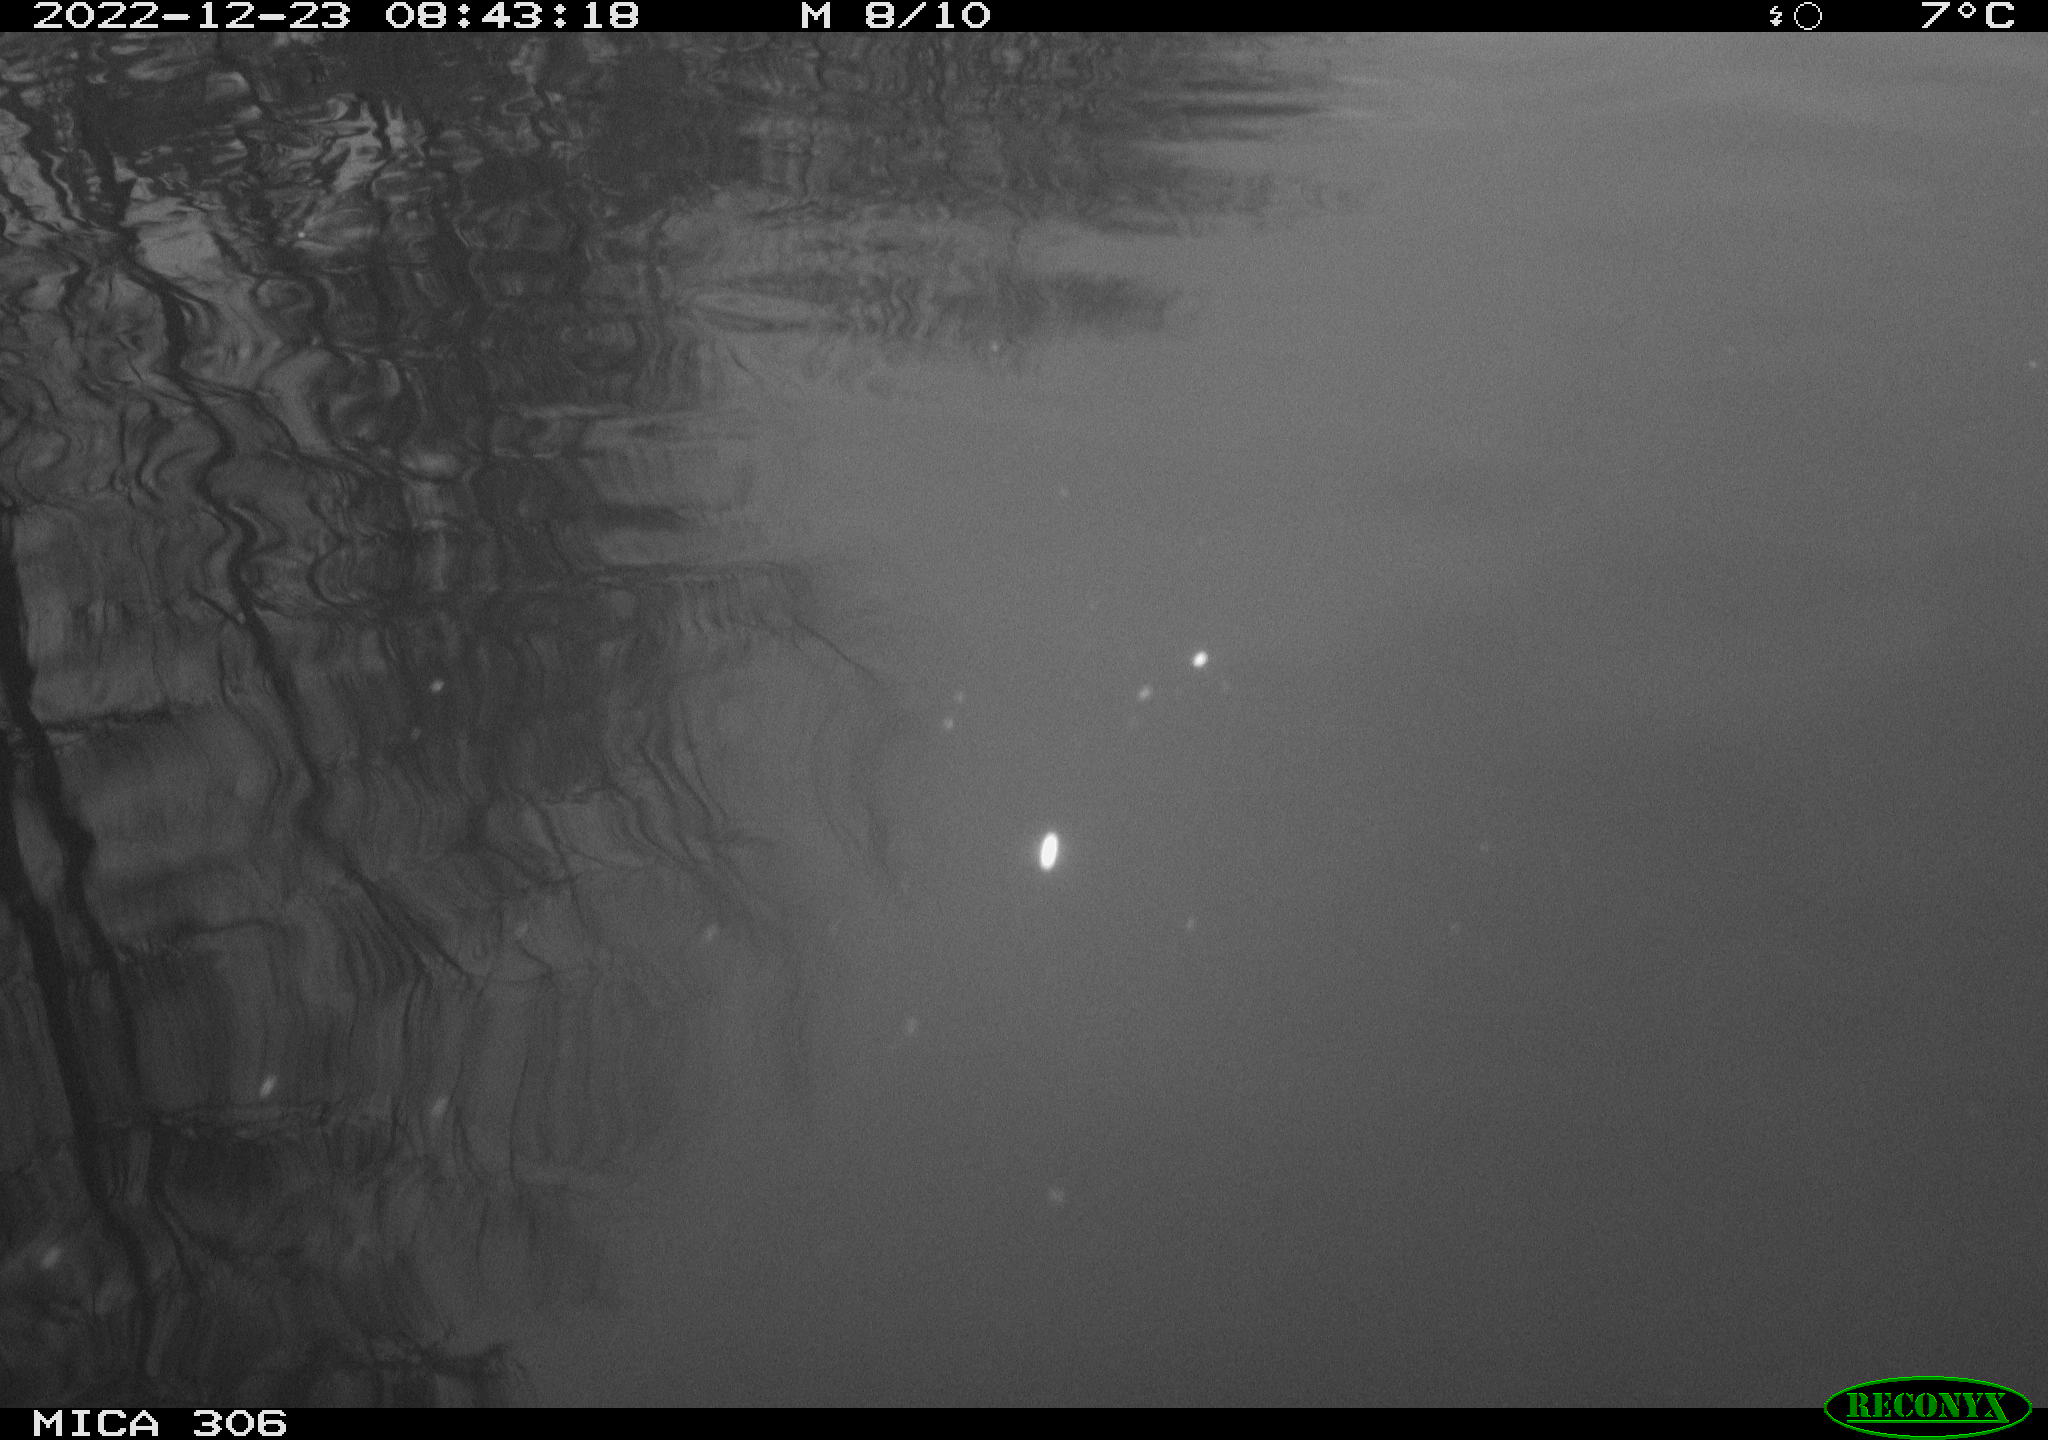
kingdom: Animalia
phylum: Chordata
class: Aves
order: Gruiformes
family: Rallidae
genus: Gallinula
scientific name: Gallinula chloropus
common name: Common moorhen
